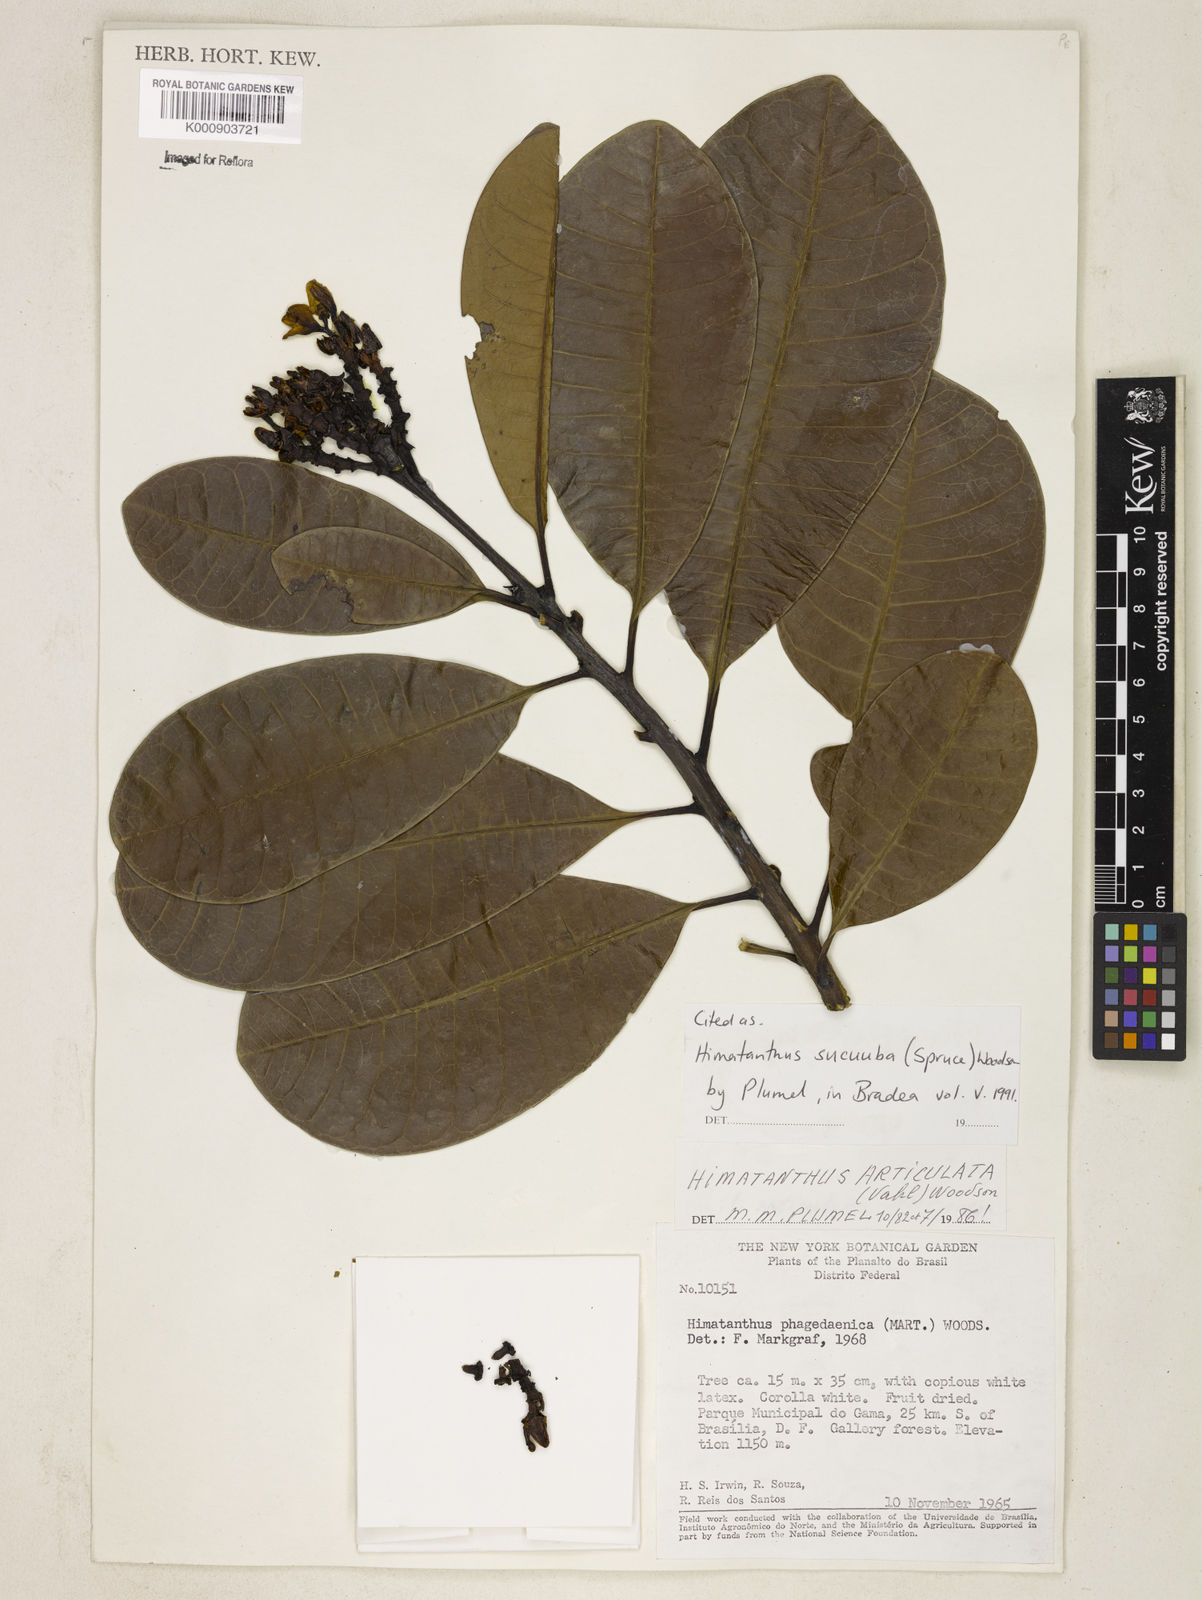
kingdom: Plantae
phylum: Tracheophyta
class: Magnoliopsida
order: Gentianales
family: Apocynaceae
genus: Himatanthus
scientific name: Himatanthus articulatus
